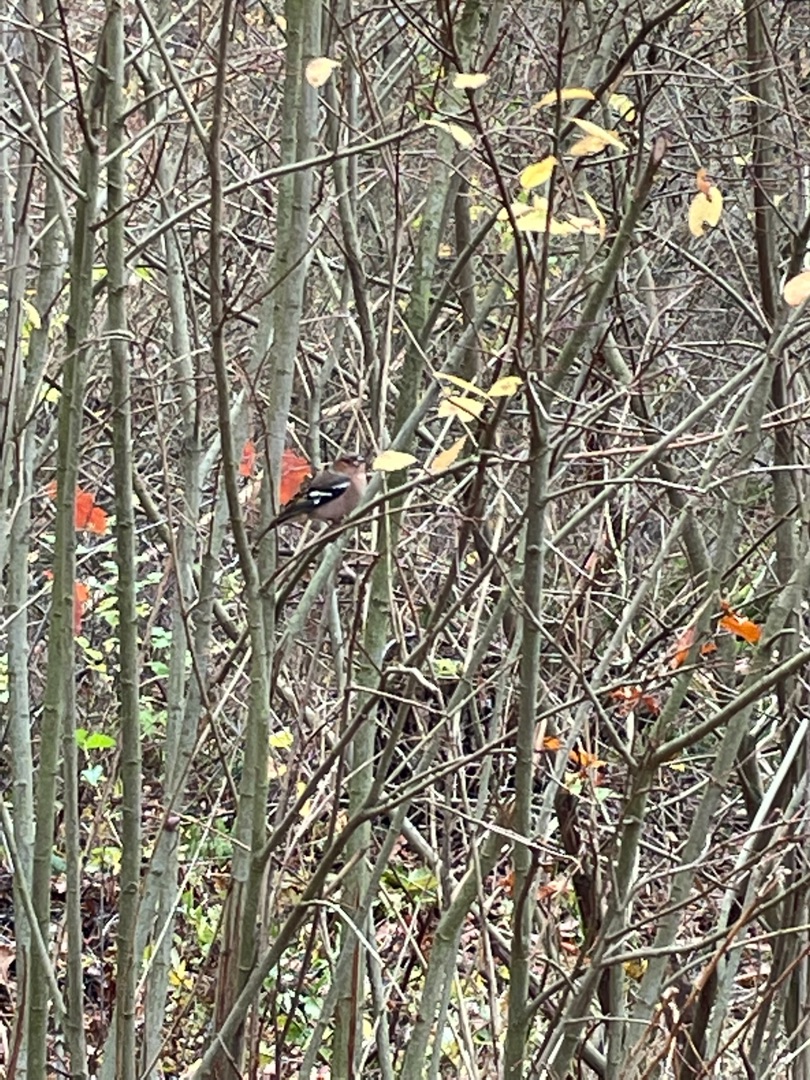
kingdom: Animalia
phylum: Chordata
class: Aves
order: Passeriformes
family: Fringillidae
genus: Fringilla
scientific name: Fringilla coelebs
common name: Bogfinke
